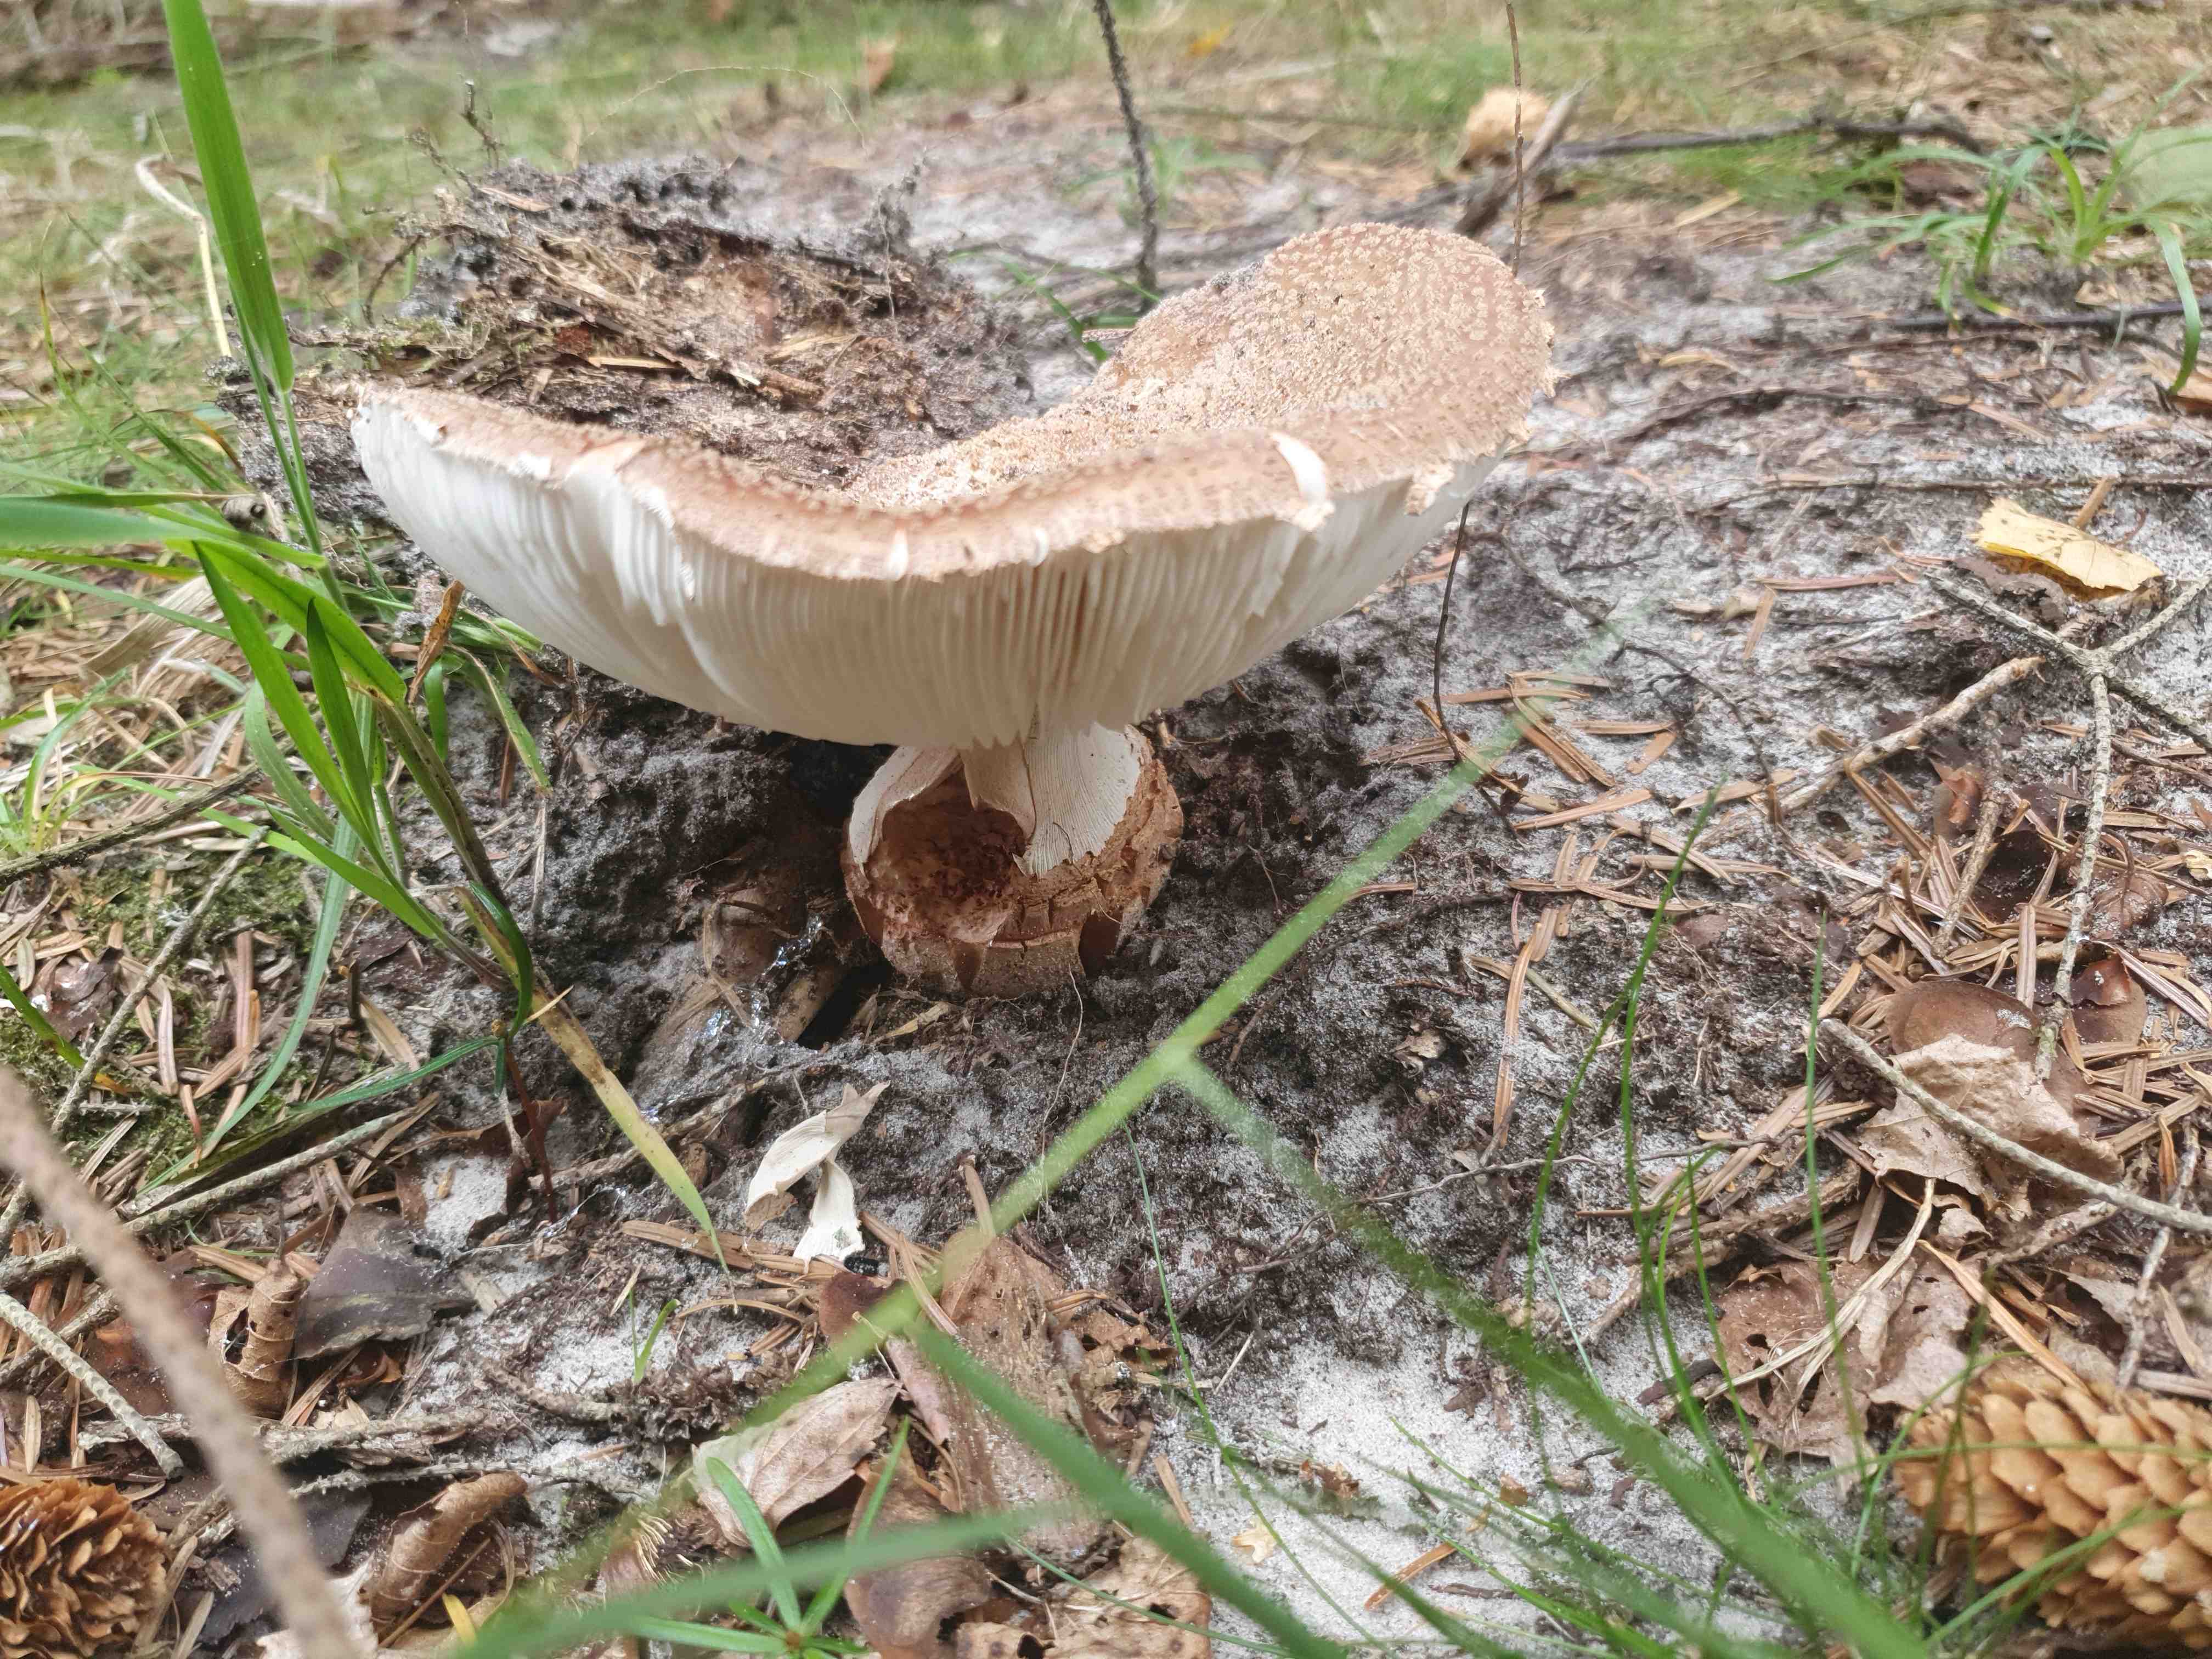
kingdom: Fungi
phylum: Basidiomycota
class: Agaricomycetes
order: Agaricales
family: Amanitaceae
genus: Amanita
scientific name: Amanita rubescens
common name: rødmende fluesvamp
